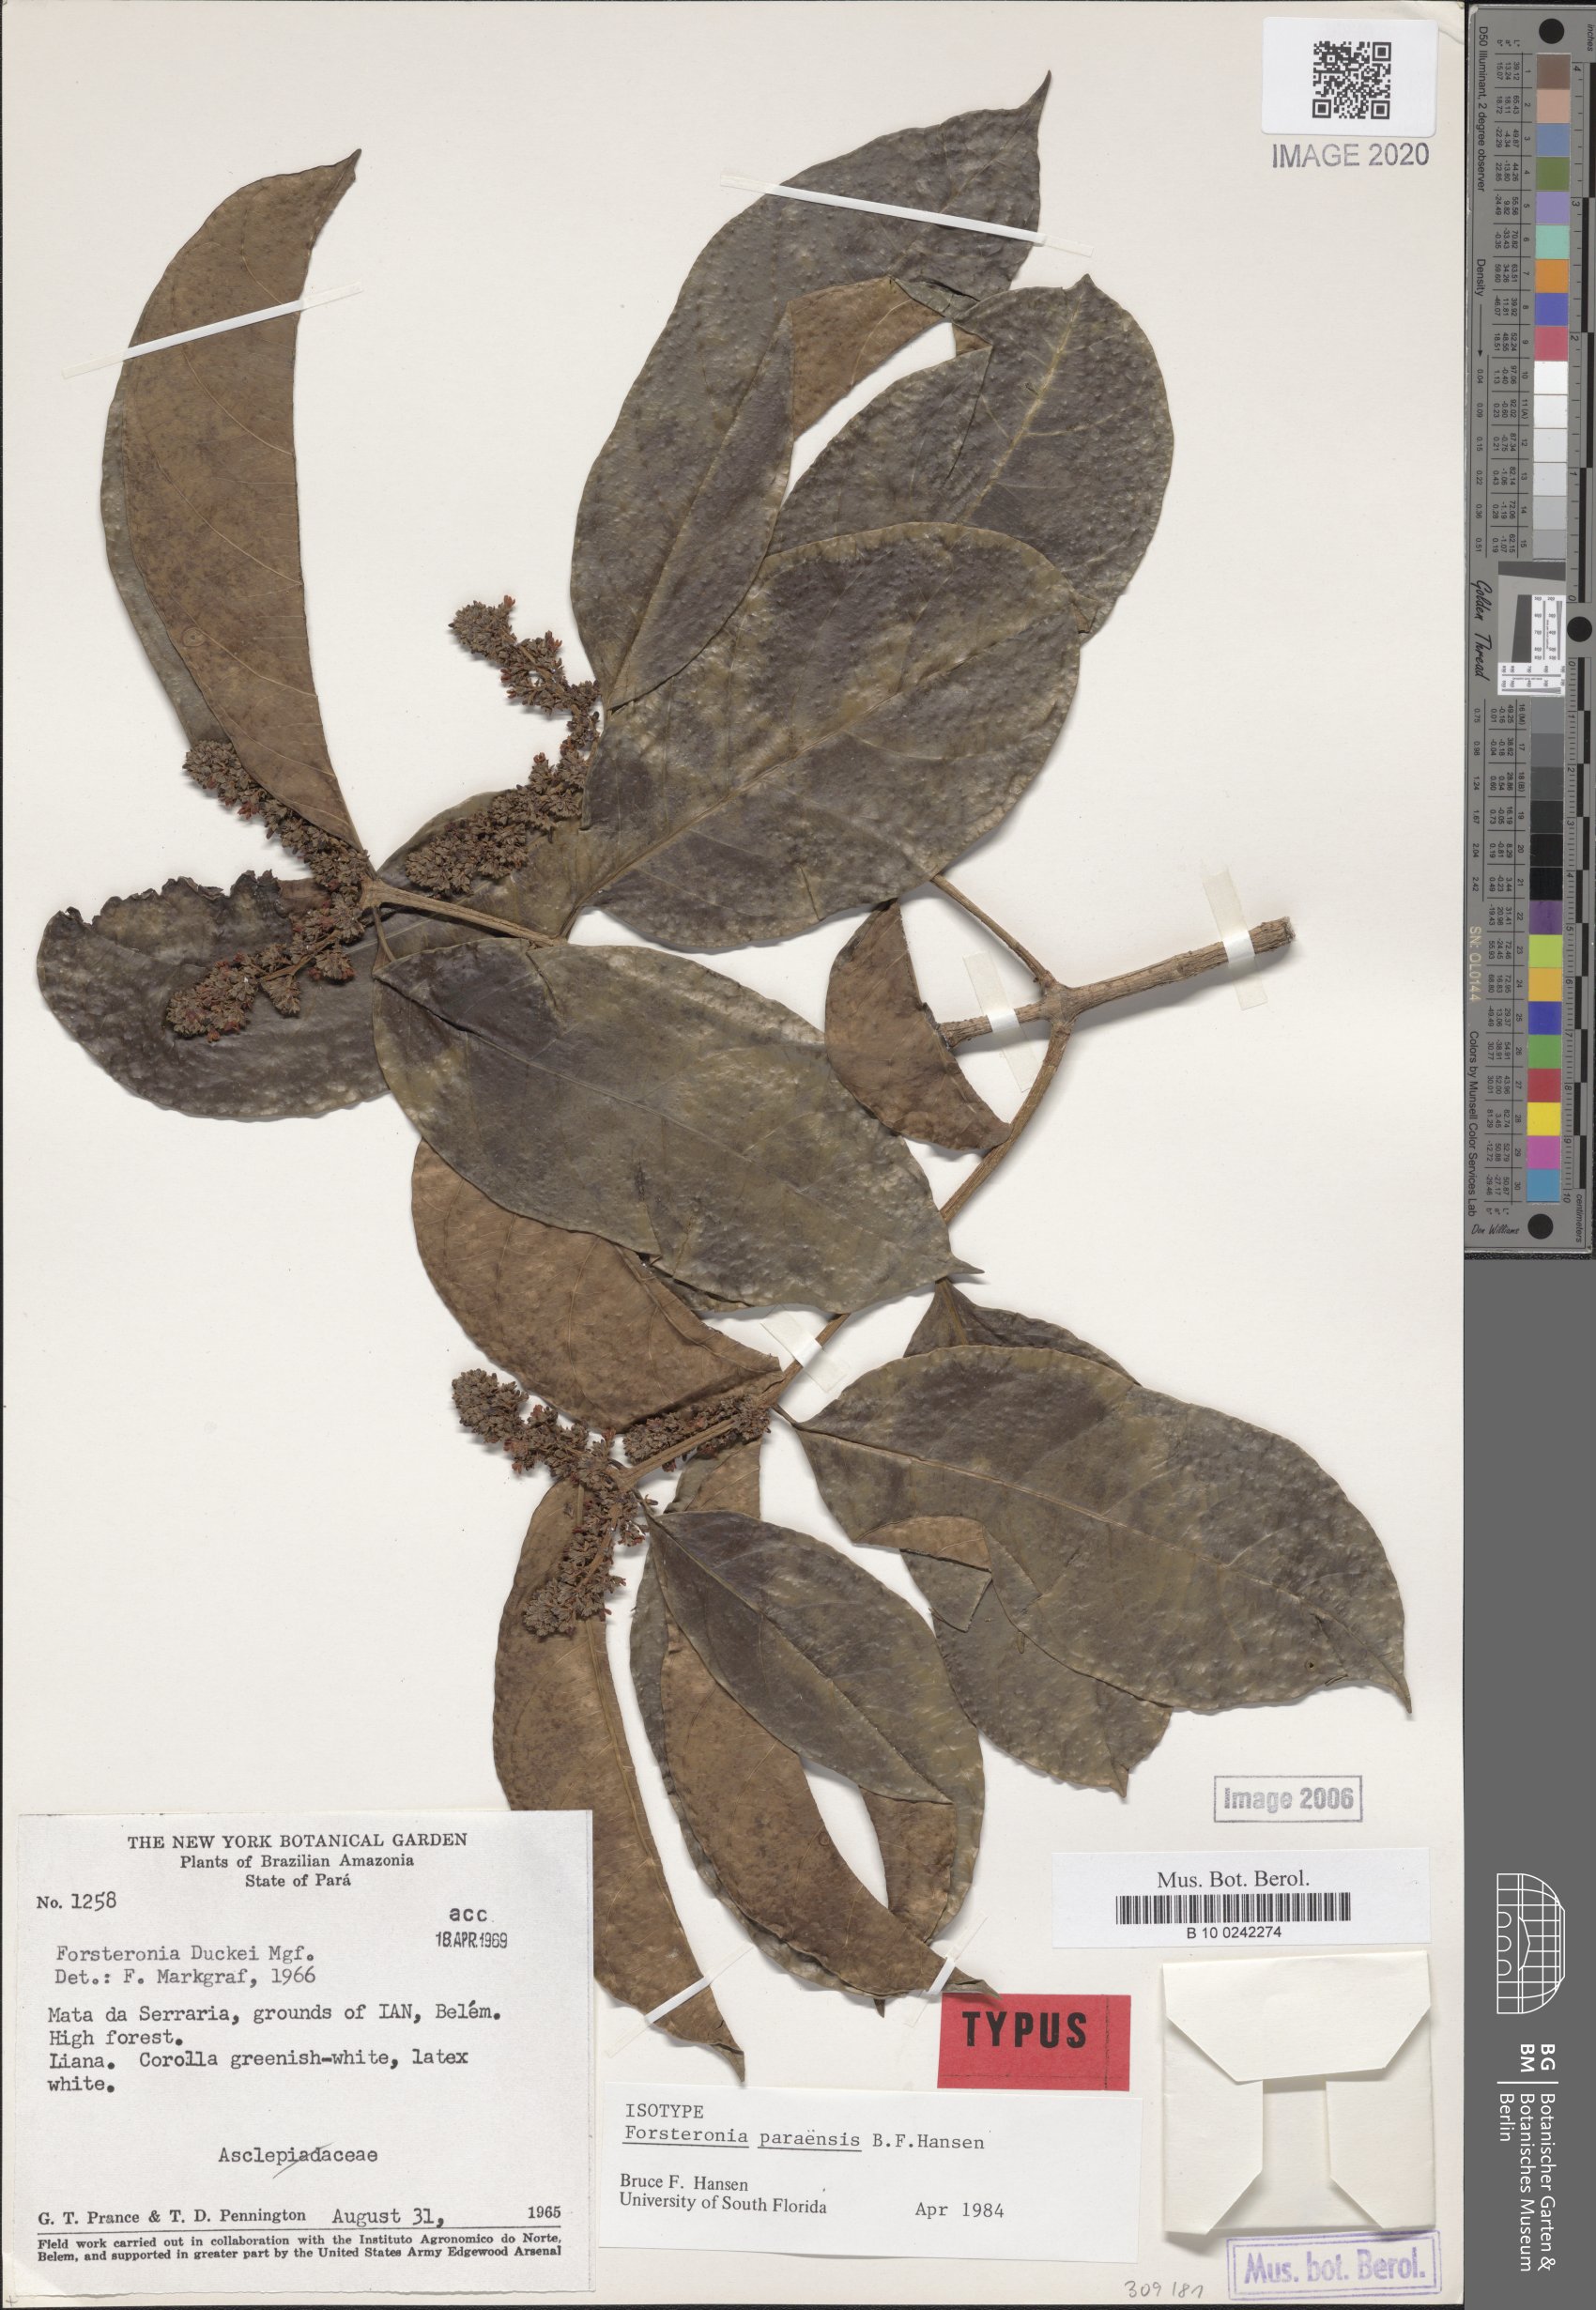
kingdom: Plantae
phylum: Tracheophyta
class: Magnoliopsida
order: Gentianales
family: Apocynaceae
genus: Forsteronia
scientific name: Forsteronia paraensis
